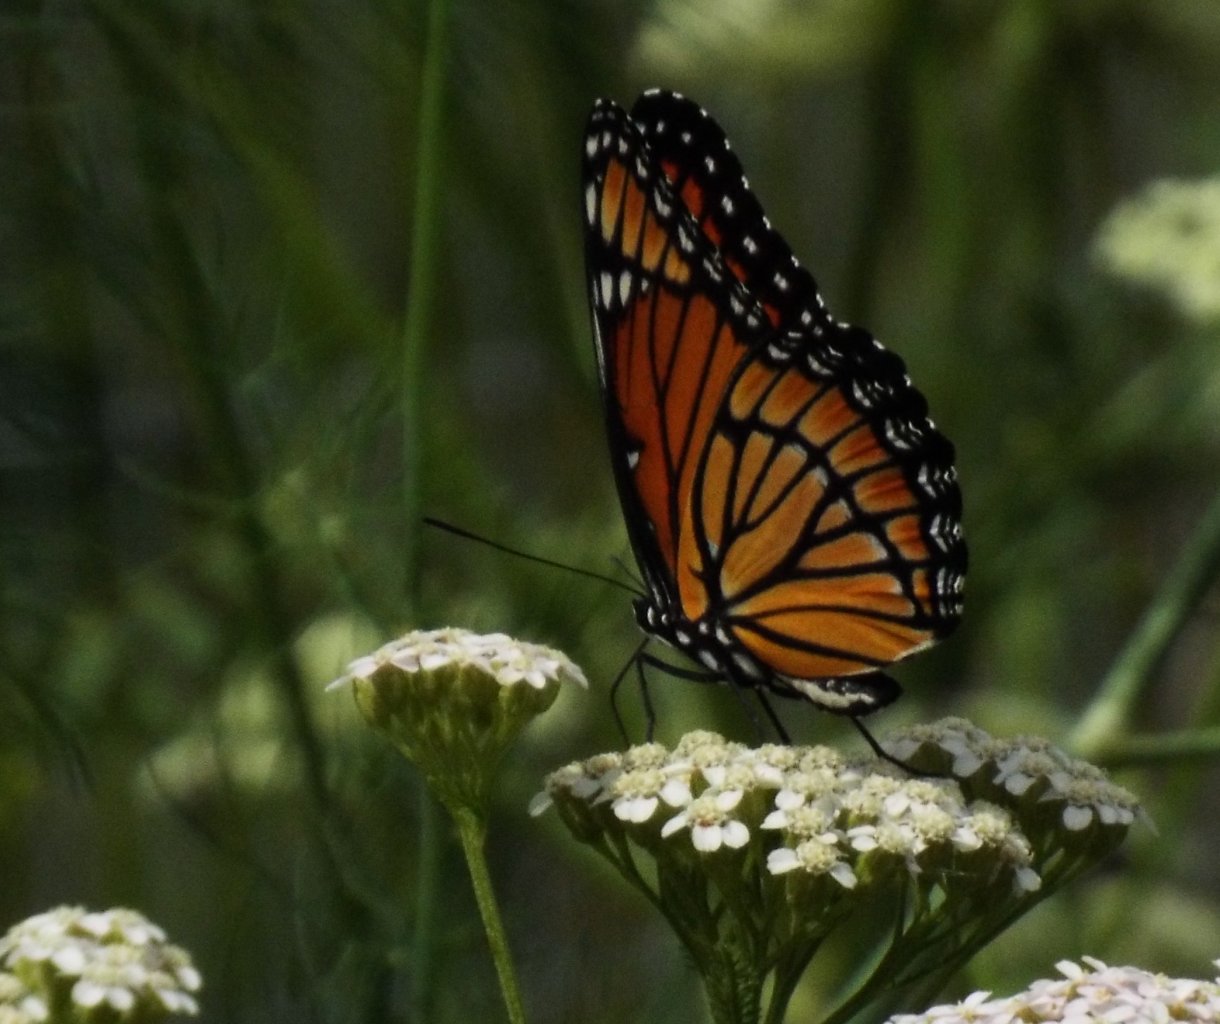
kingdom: Animalia
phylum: Arthropoda
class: Insecta
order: Lepidoptera
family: Nymphalidae
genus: Limenitis
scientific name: Limenitis archippus
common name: Viceroy
